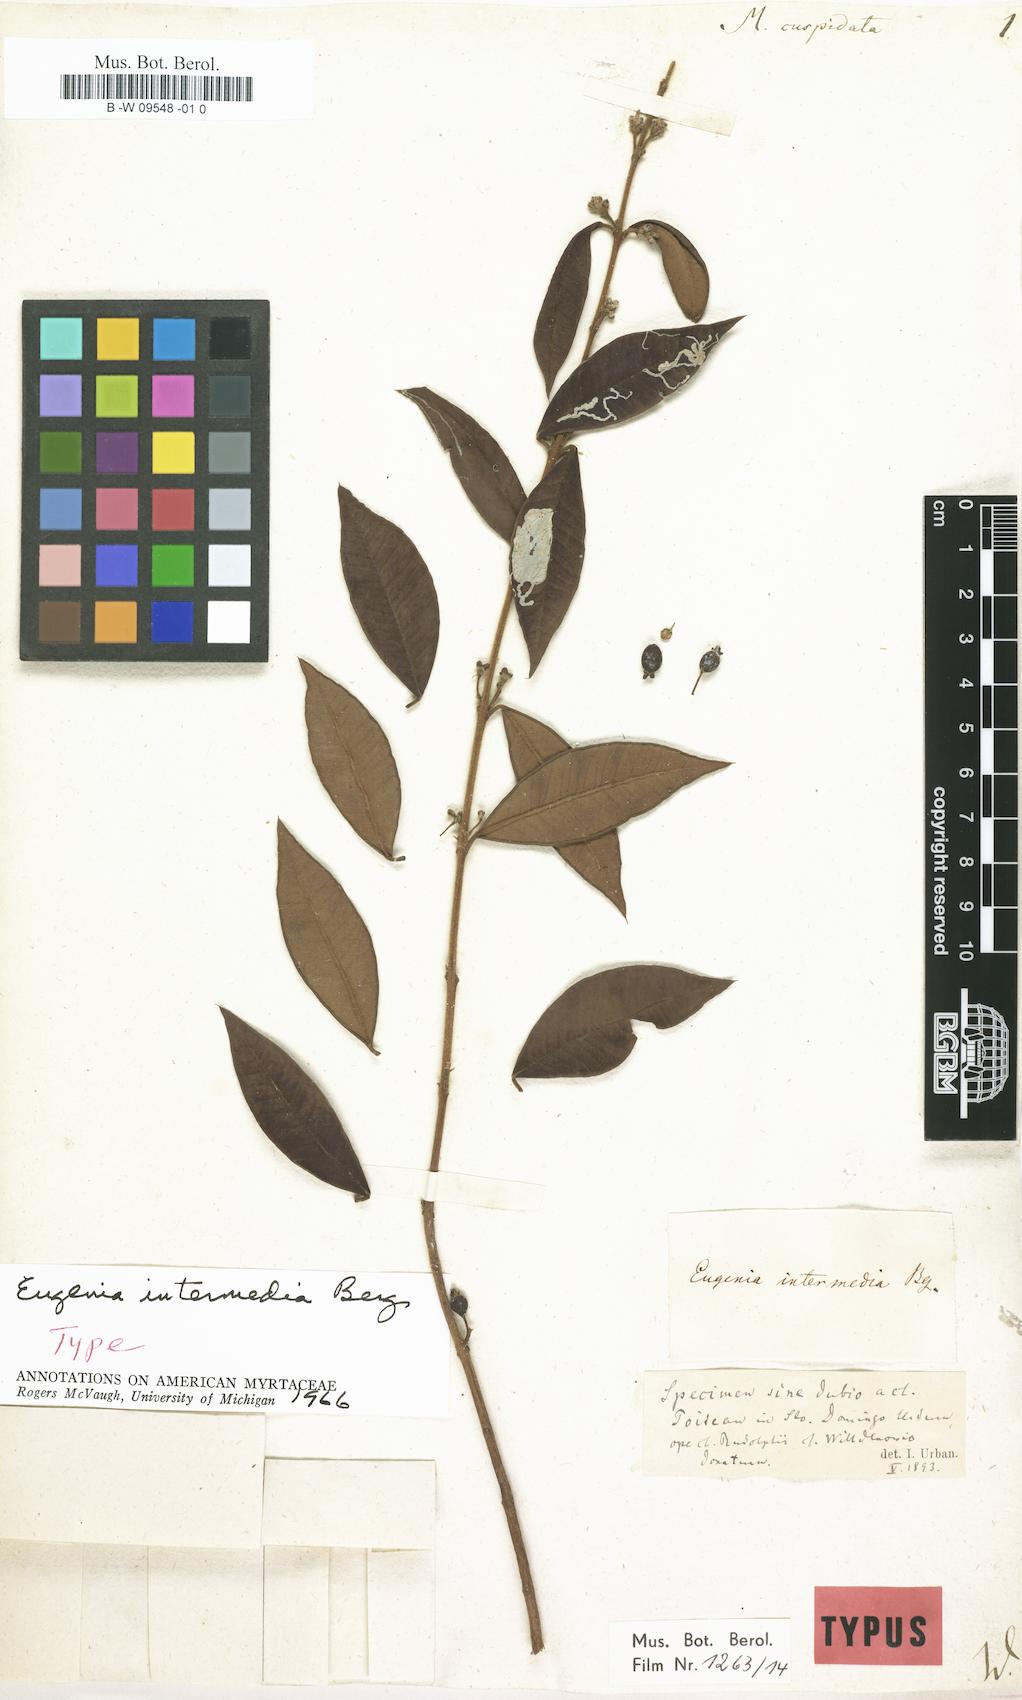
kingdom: Plantae
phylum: Tracheophyta
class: Magnoliopsida
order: Myrtales
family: Myrtaceae
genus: Psidium
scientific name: Psidium salutare
